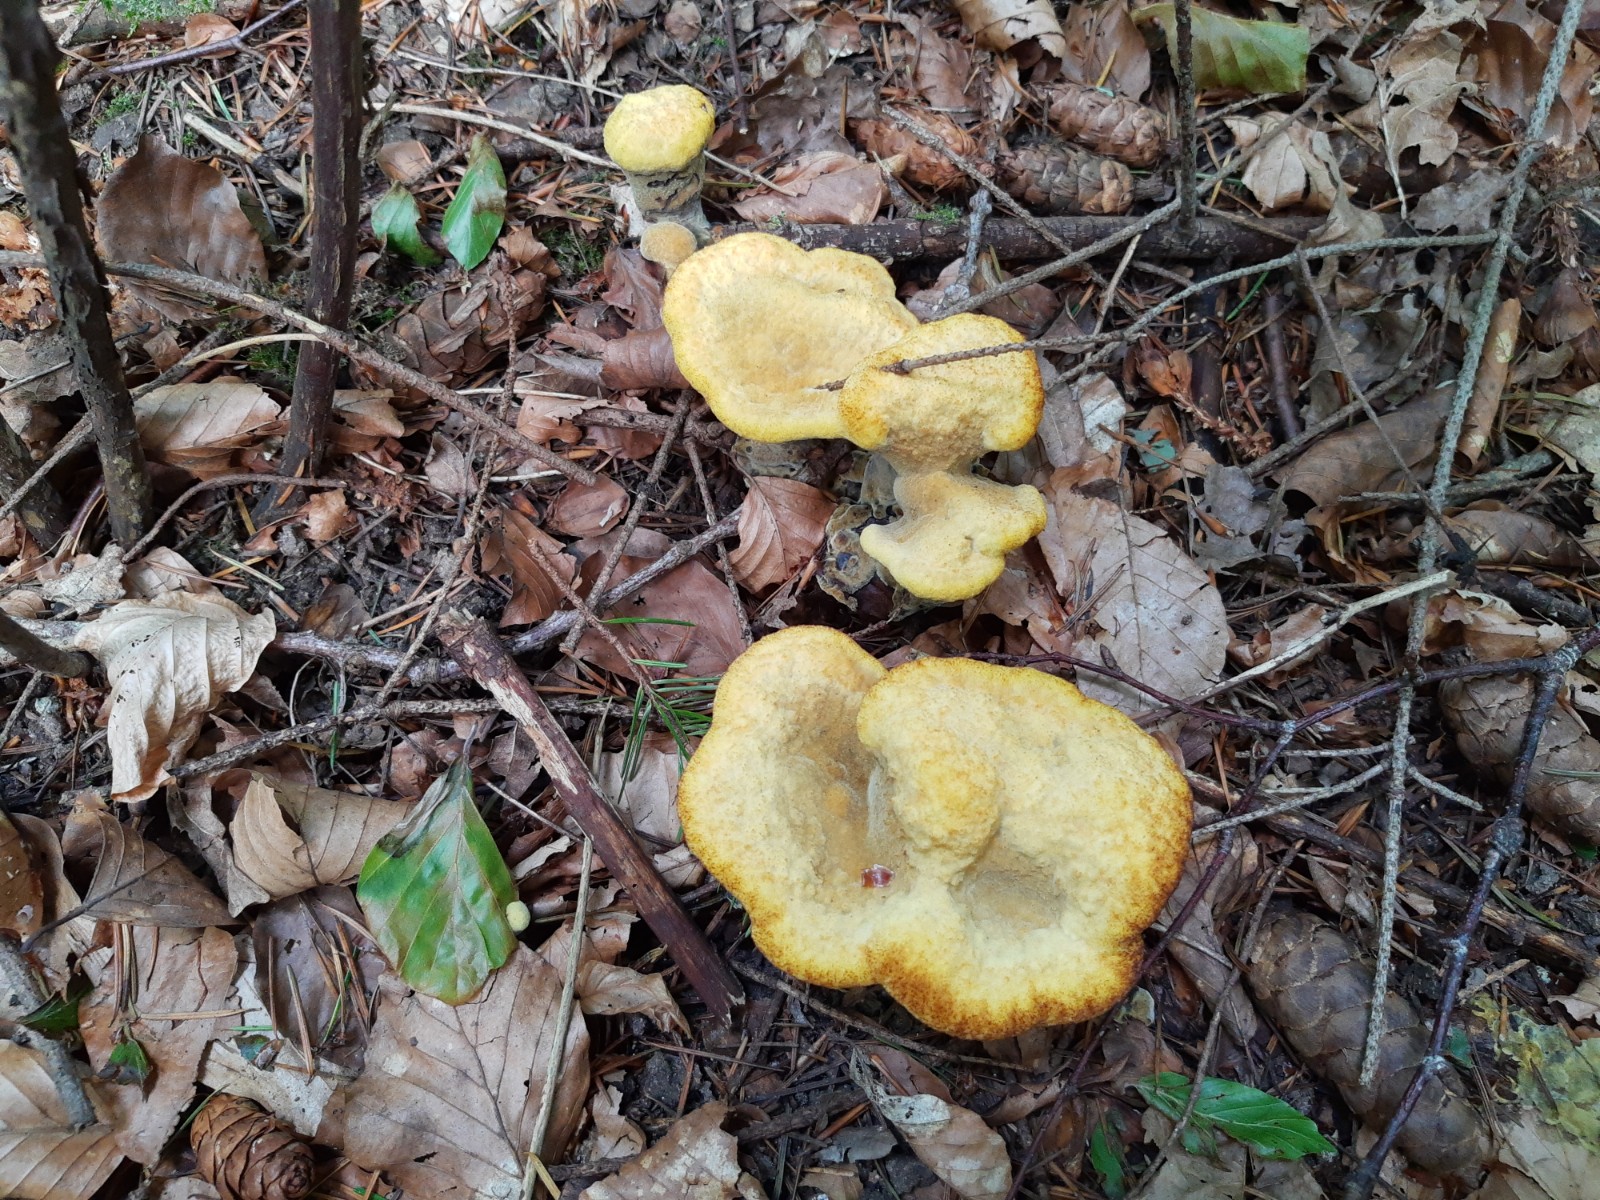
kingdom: Fungi
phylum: Basidiomycota
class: Agaricomycetes
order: Polyporales
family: Laetiporaceae
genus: Phaeolus
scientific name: Phaeolus schweinitzii
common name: brunporesvamp
